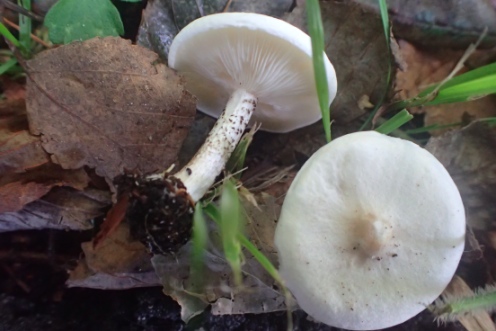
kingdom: Fungi
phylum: Basidiomycota
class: Agaricomycetes
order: Agaricales
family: Tricholomataceae
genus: Melanoleuca
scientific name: Melanoleuca verrucipes
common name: rufodet munkehat
